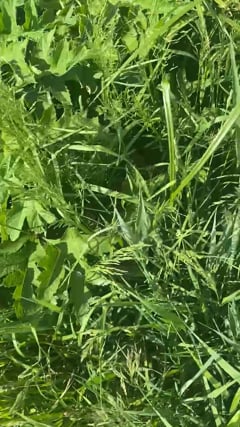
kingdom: Animalia
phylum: Chordata
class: Aves
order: Passeriformes
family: Acrocephalidae
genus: Acrocephalus
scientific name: Acrocephalus scirpaceus
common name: Eurasian reed warbler
